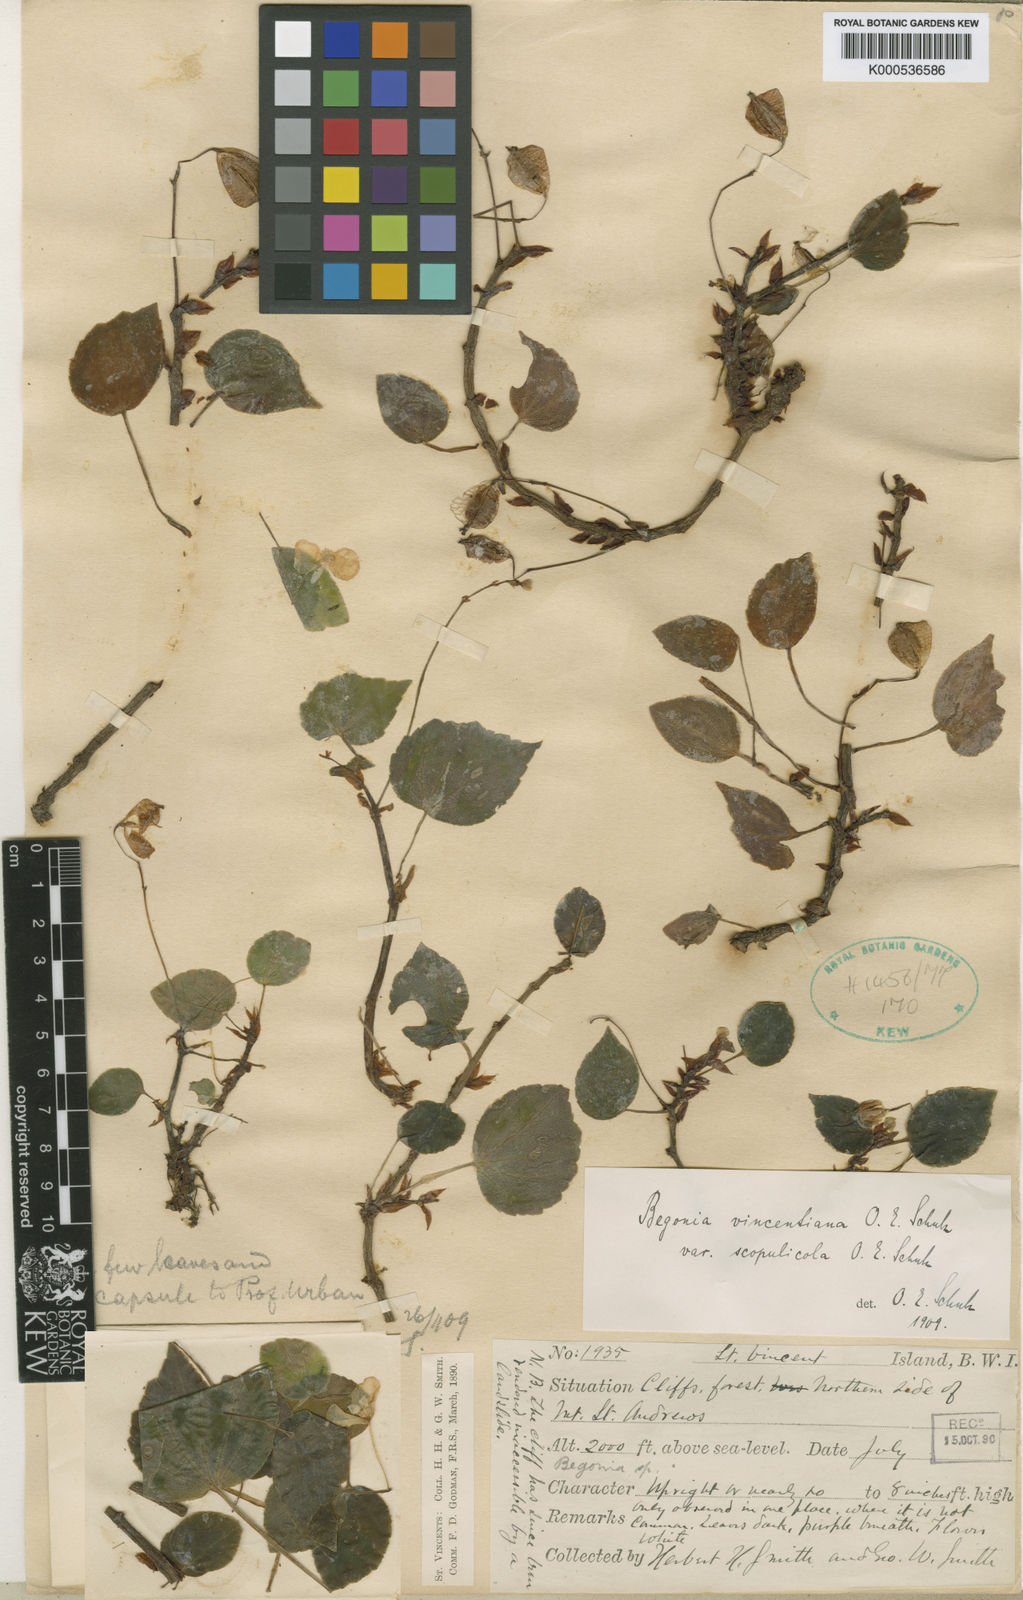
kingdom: Plantae
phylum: Tracheophyta
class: Magnoliopsida
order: Cucurbitales
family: Begoniaceae
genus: Begonia
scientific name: Begonia vincentina
